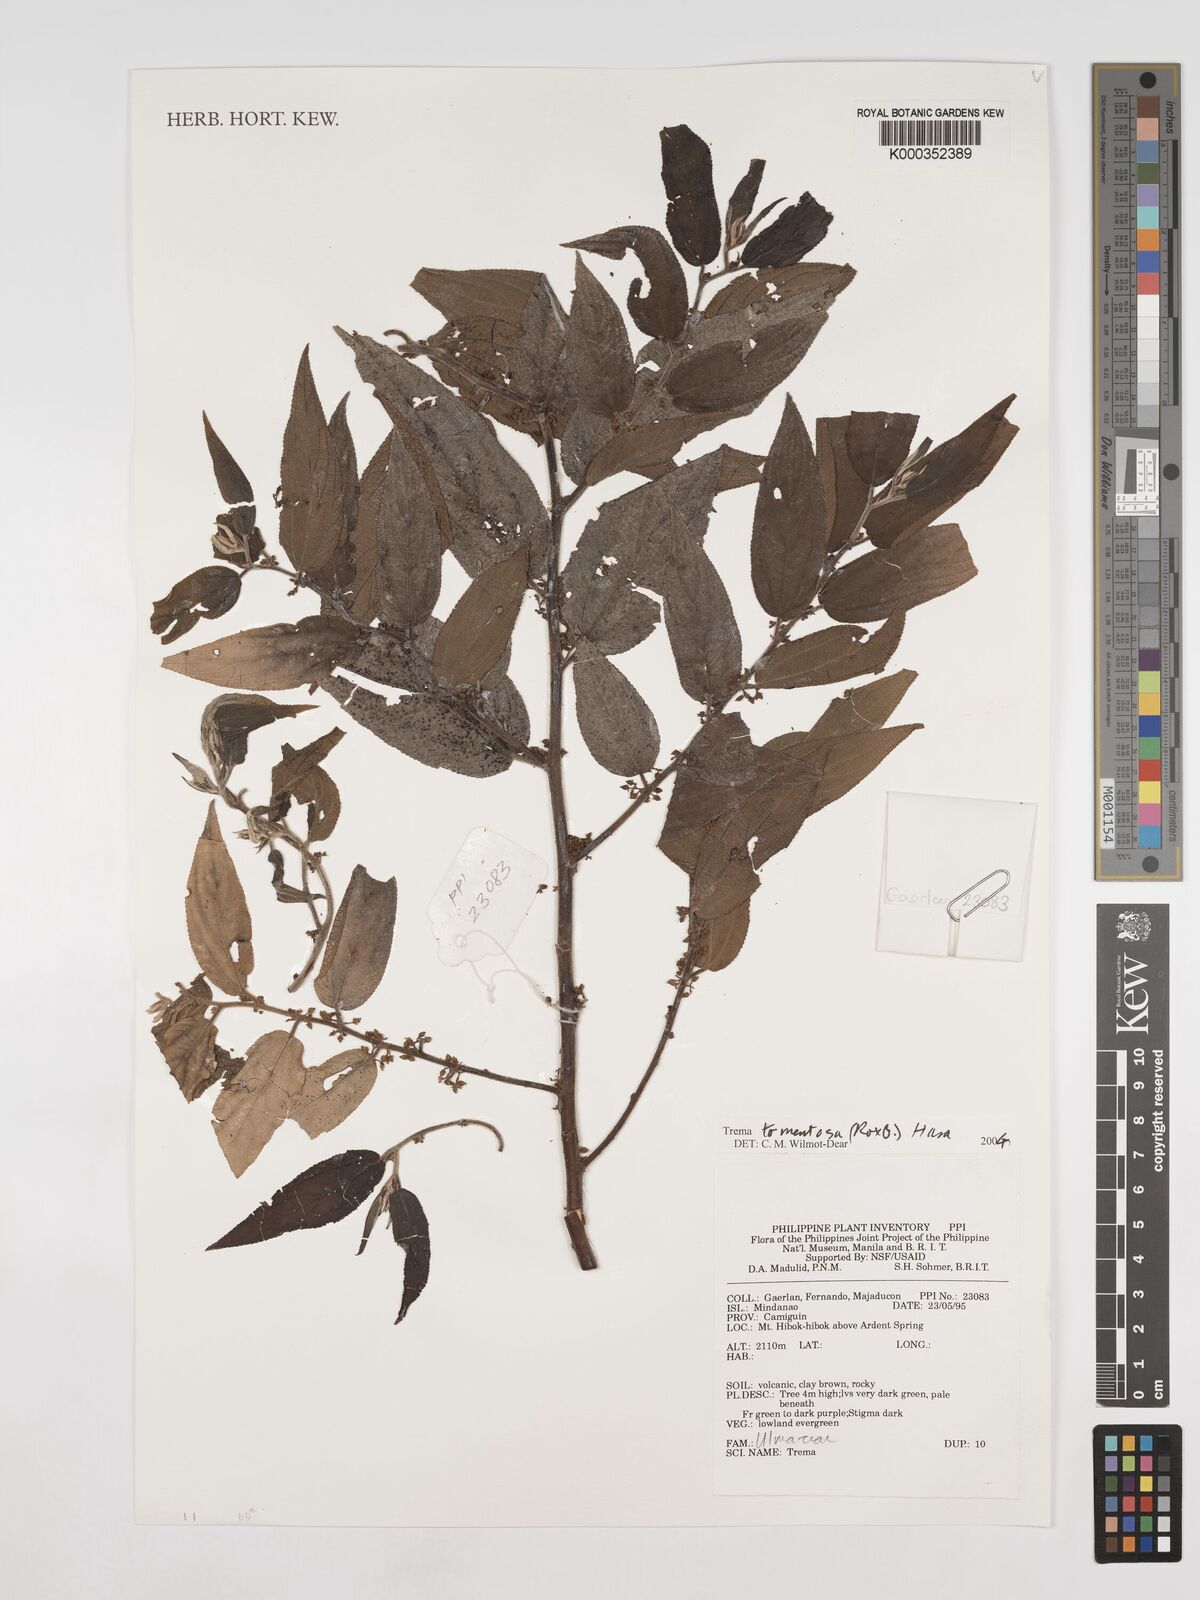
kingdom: Plantae
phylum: Tracheophyta
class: Magnoliopsida
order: Rosales
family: Cannabaceae
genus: Trema
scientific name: Trema tomentosum
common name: Peach-leaf-poisonbush
